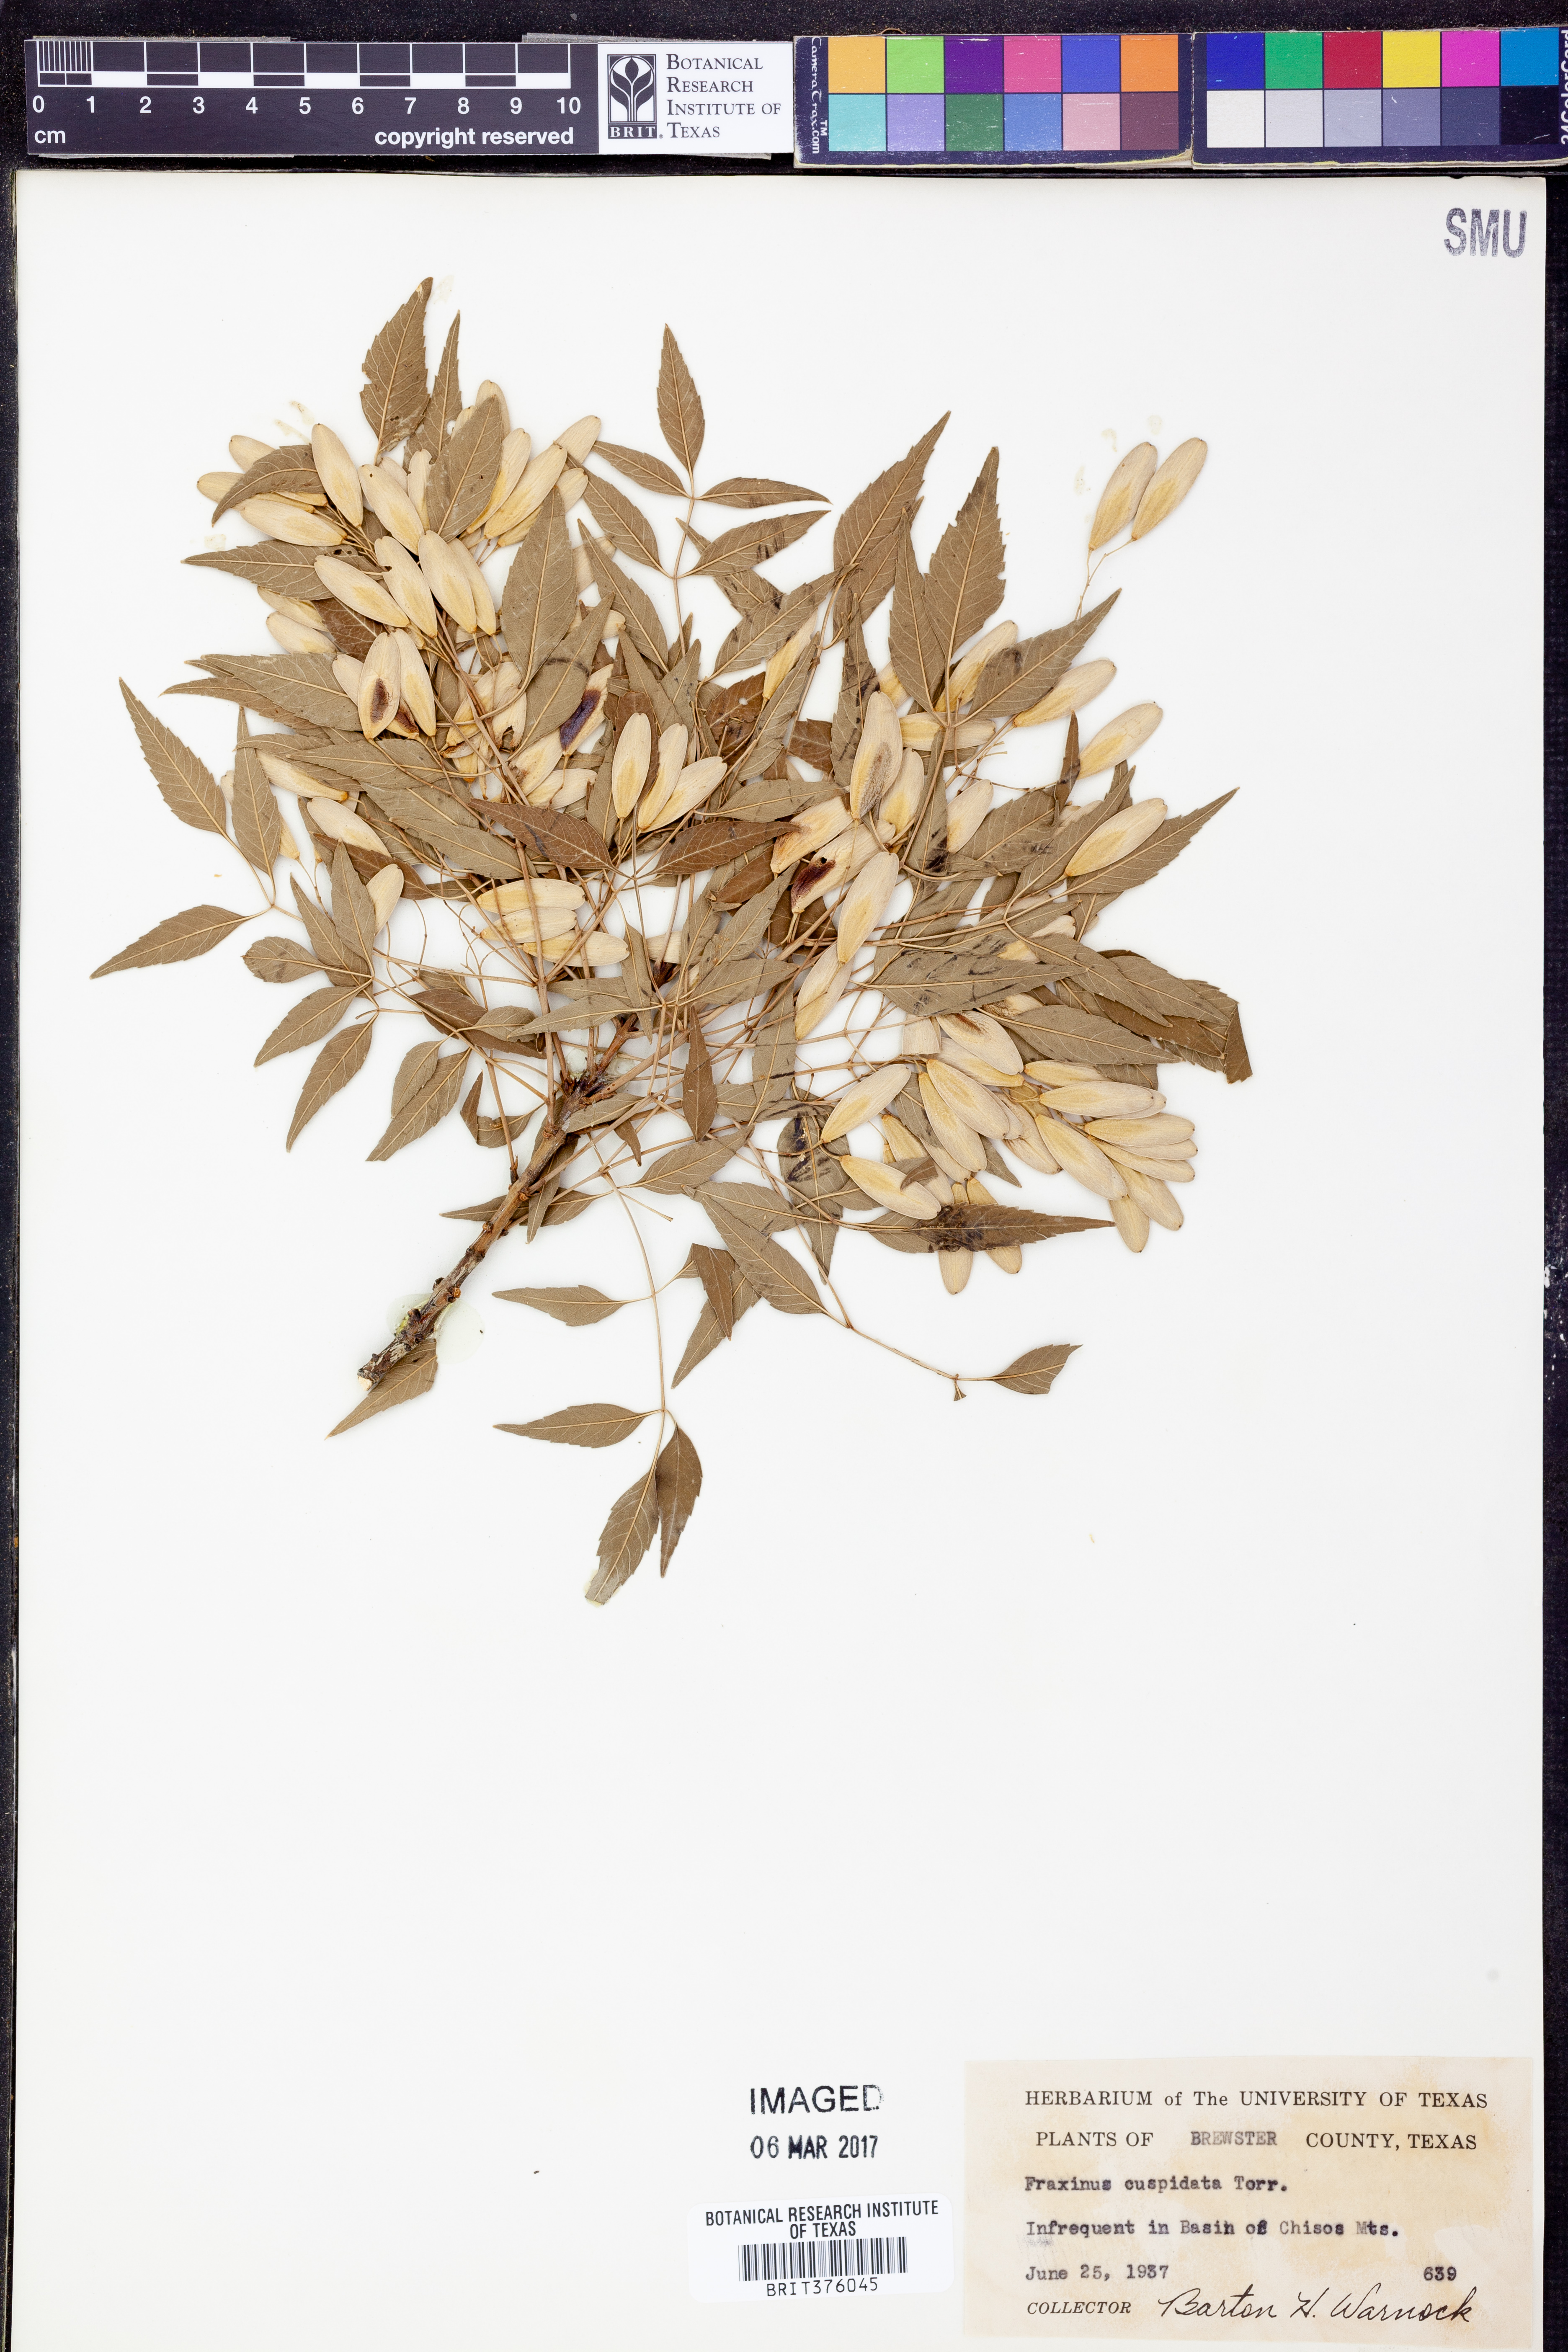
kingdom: Plantae
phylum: Tracheophyta
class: Magnoliopsida
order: Lamiales
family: Oleaceae
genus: Fraxinus
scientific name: Fraxinus cuspidata
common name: Fragrant ash
